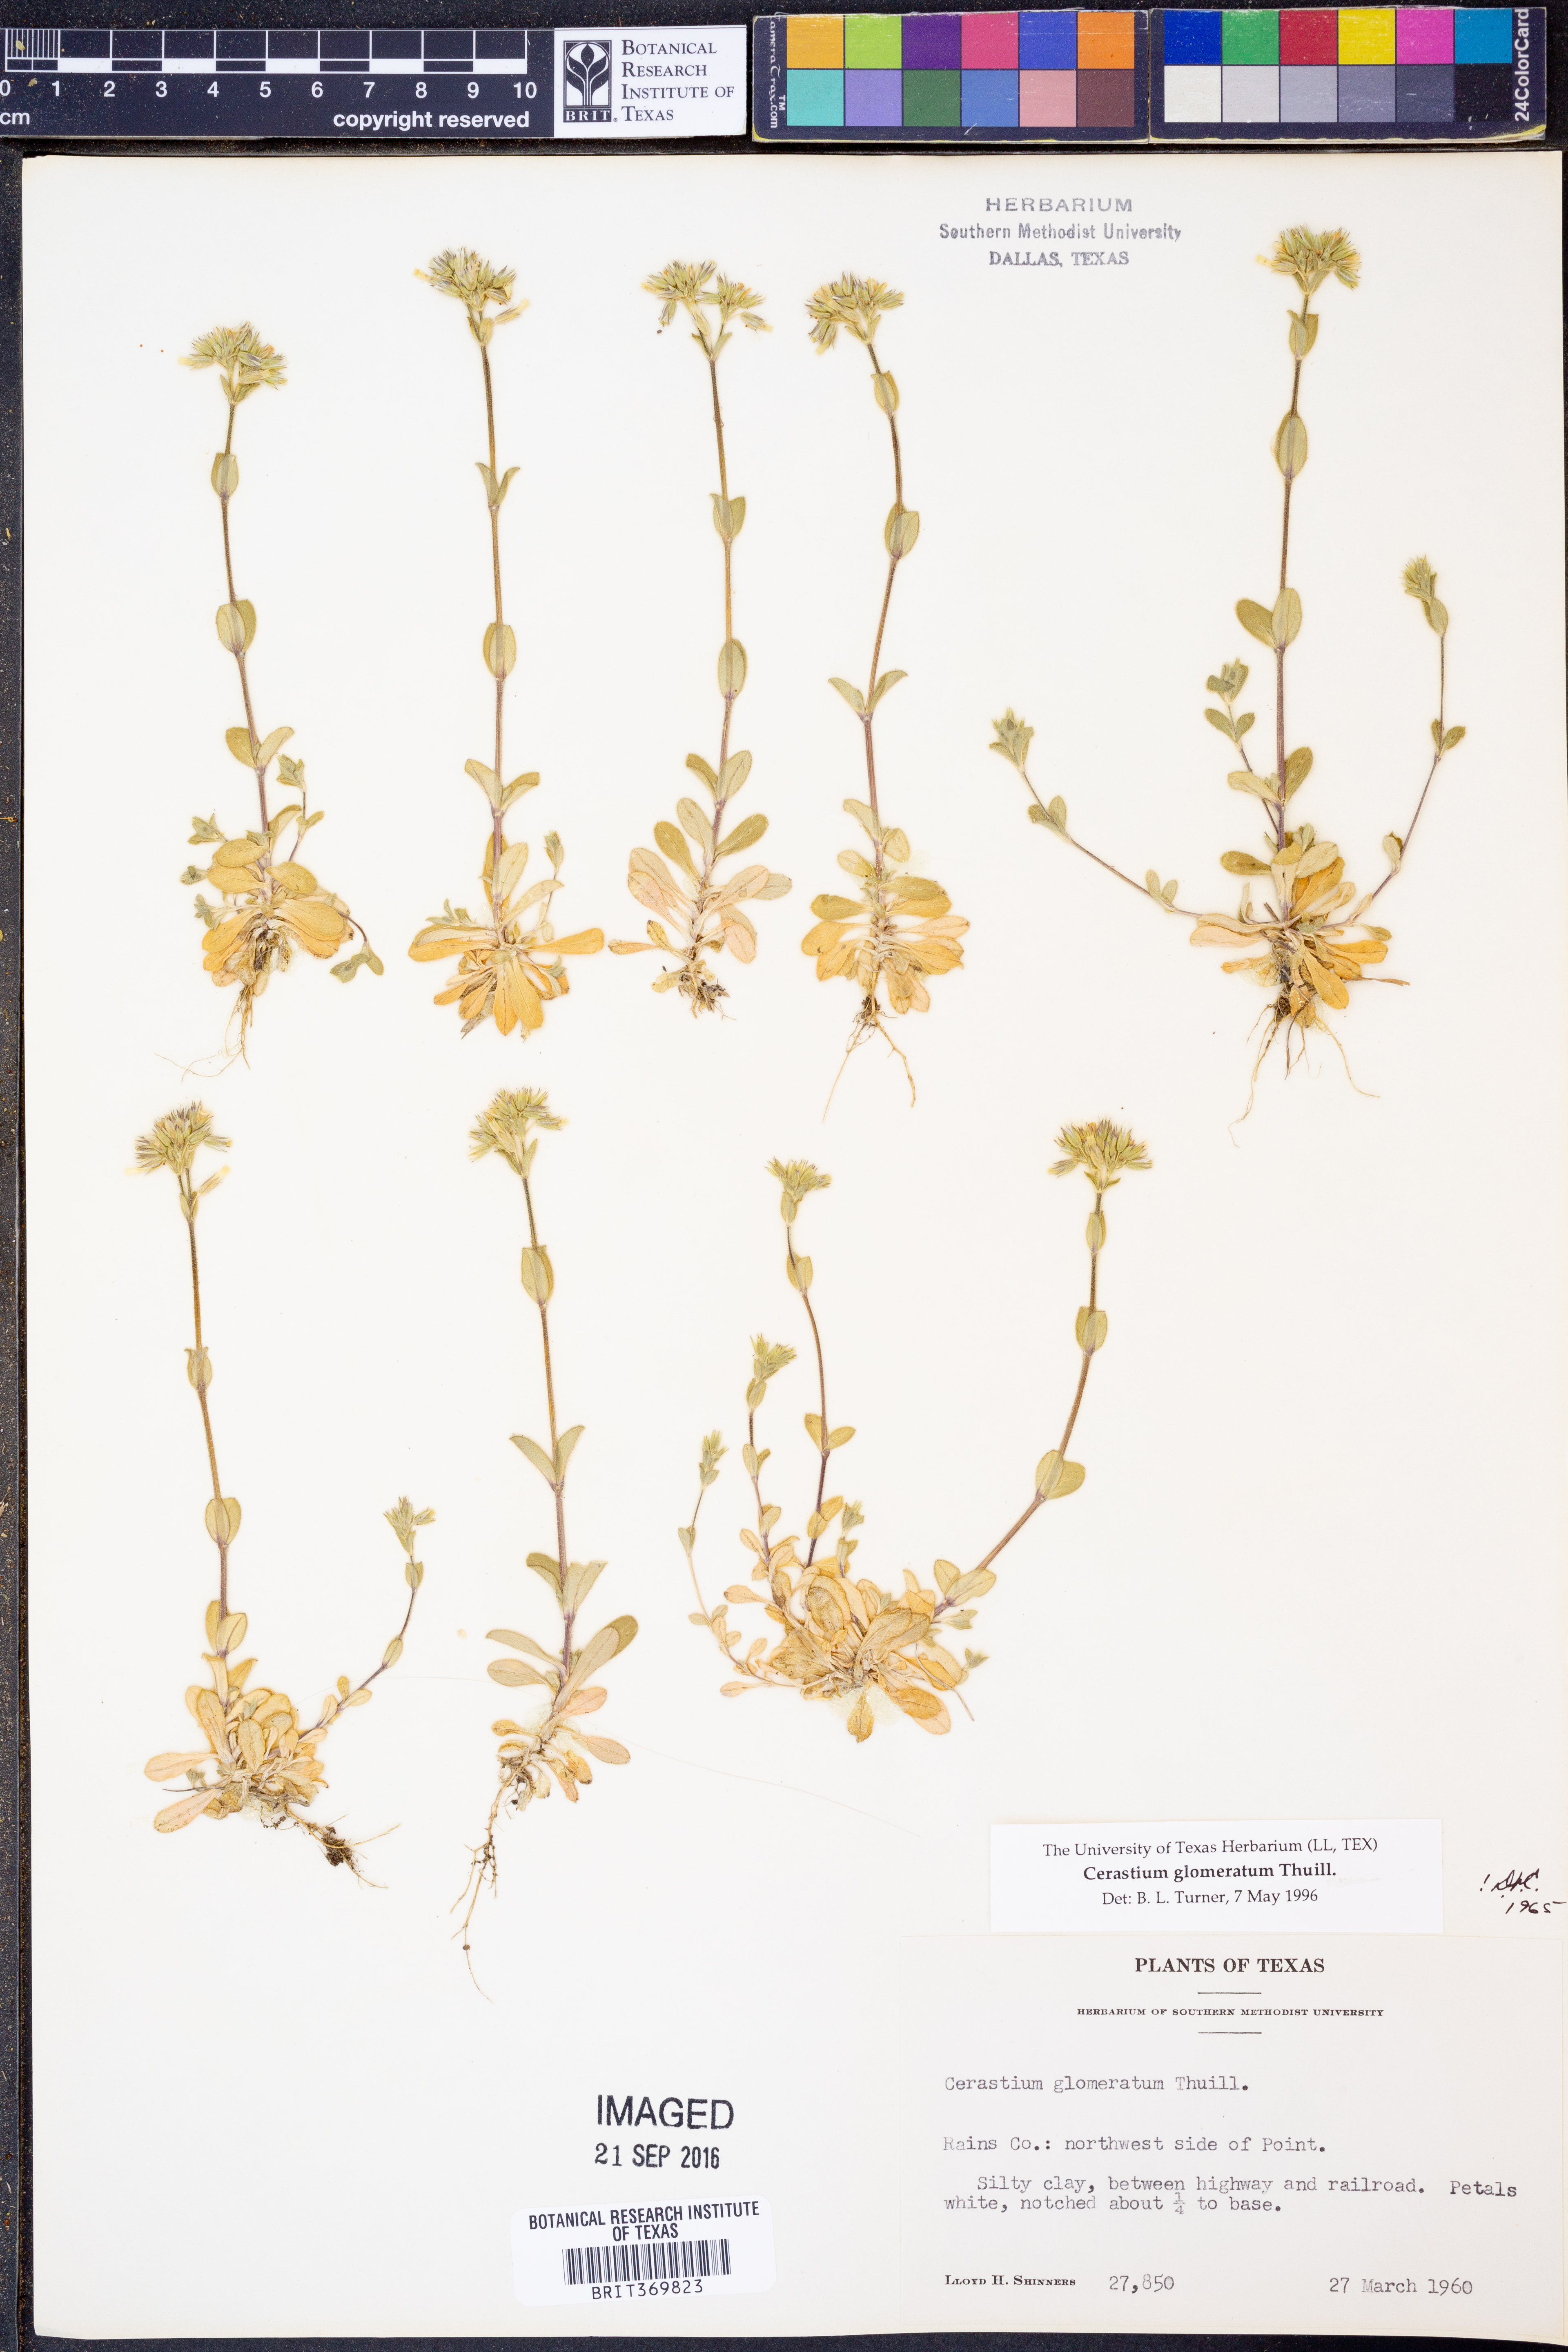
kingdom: Plantae
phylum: Tracheophyta
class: Magnoliopsida
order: Caryophyllales
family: Caryophyllaceae
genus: Cerastium
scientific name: Cerastium glomeratum
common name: Sticky chickweed
